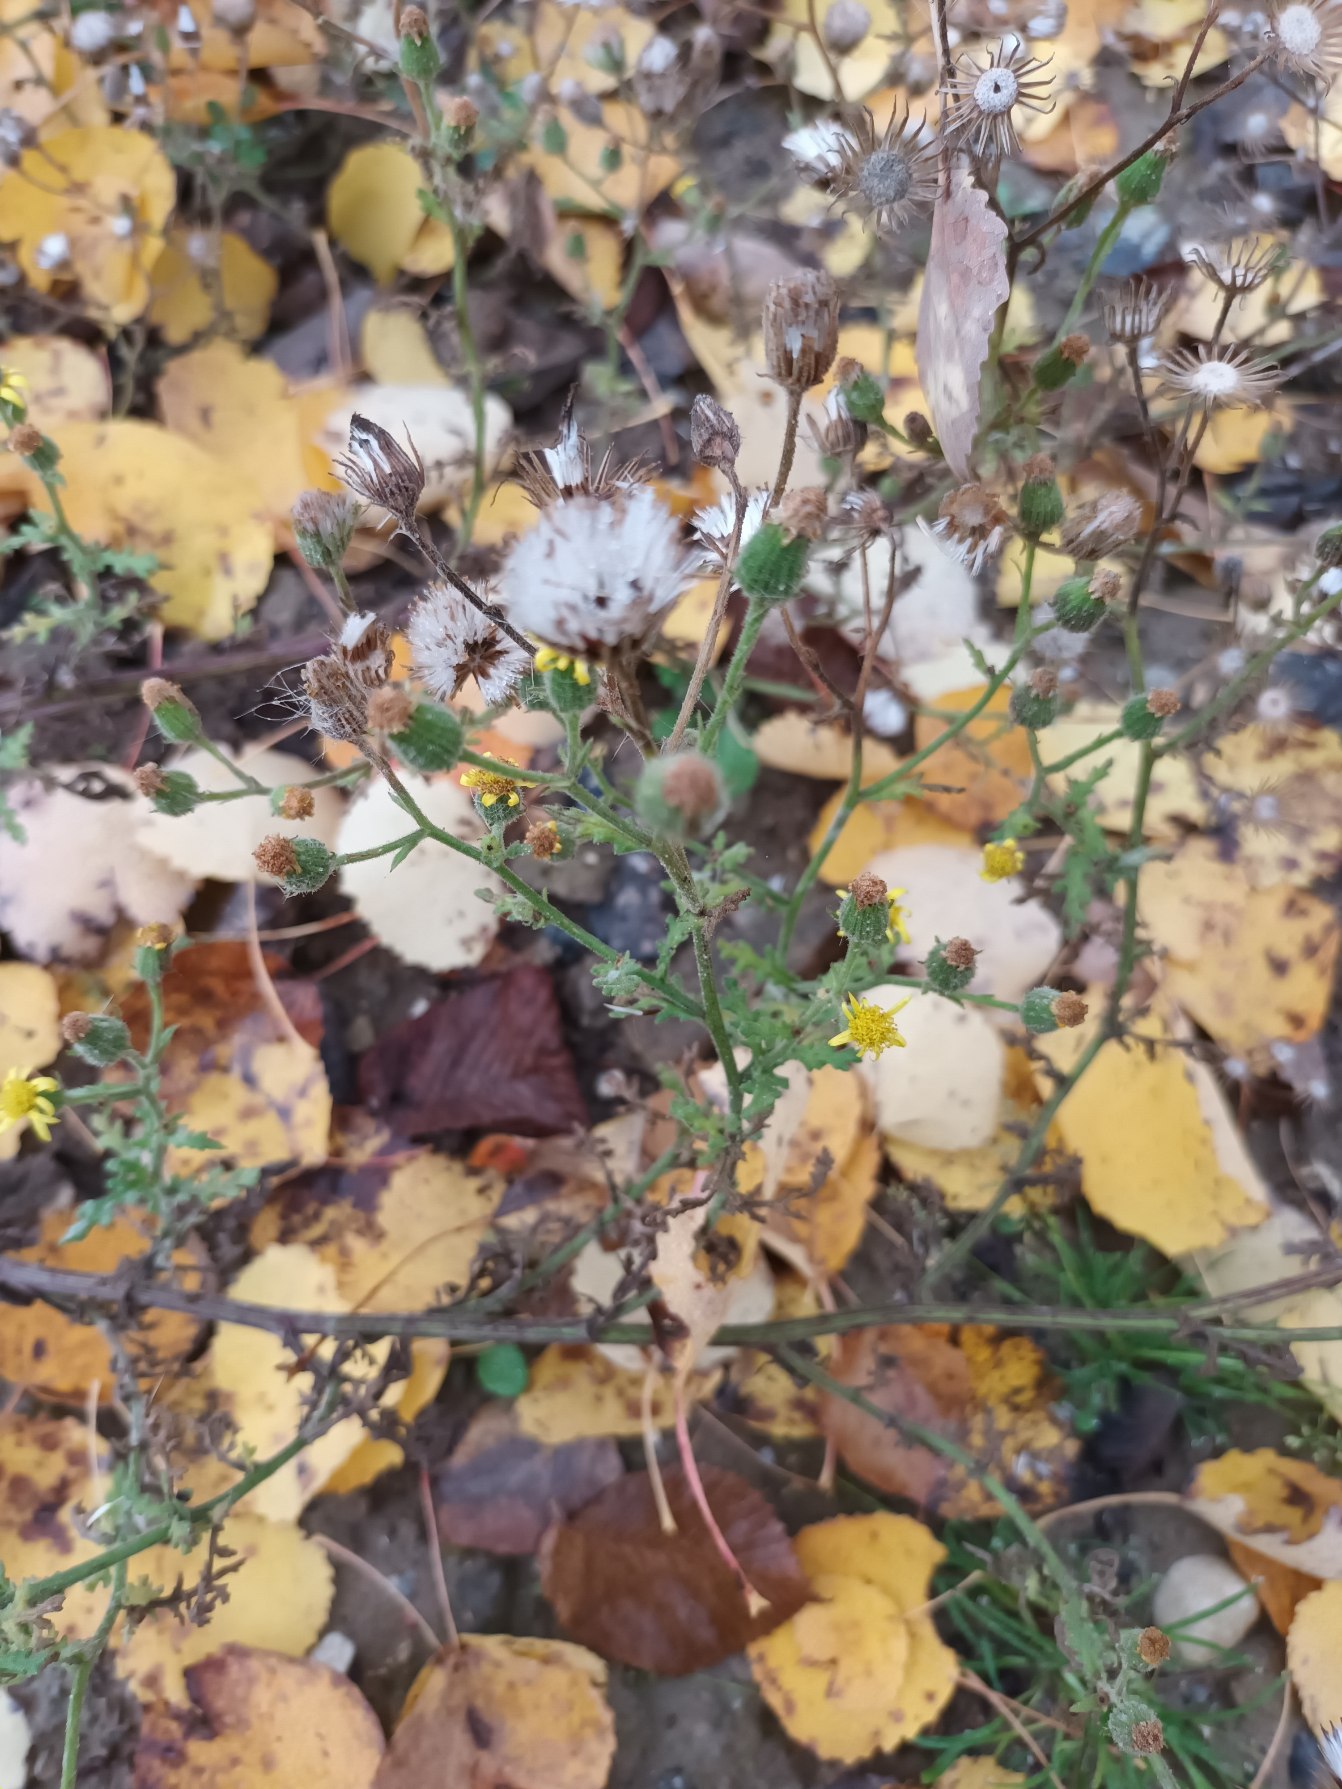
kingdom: Plantae
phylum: Tracheophyta
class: Magnoliopsida
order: Asterales
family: Asteraceae
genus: Senecio
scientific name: Senecio viscosus
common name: Klæbrig brandbæger
